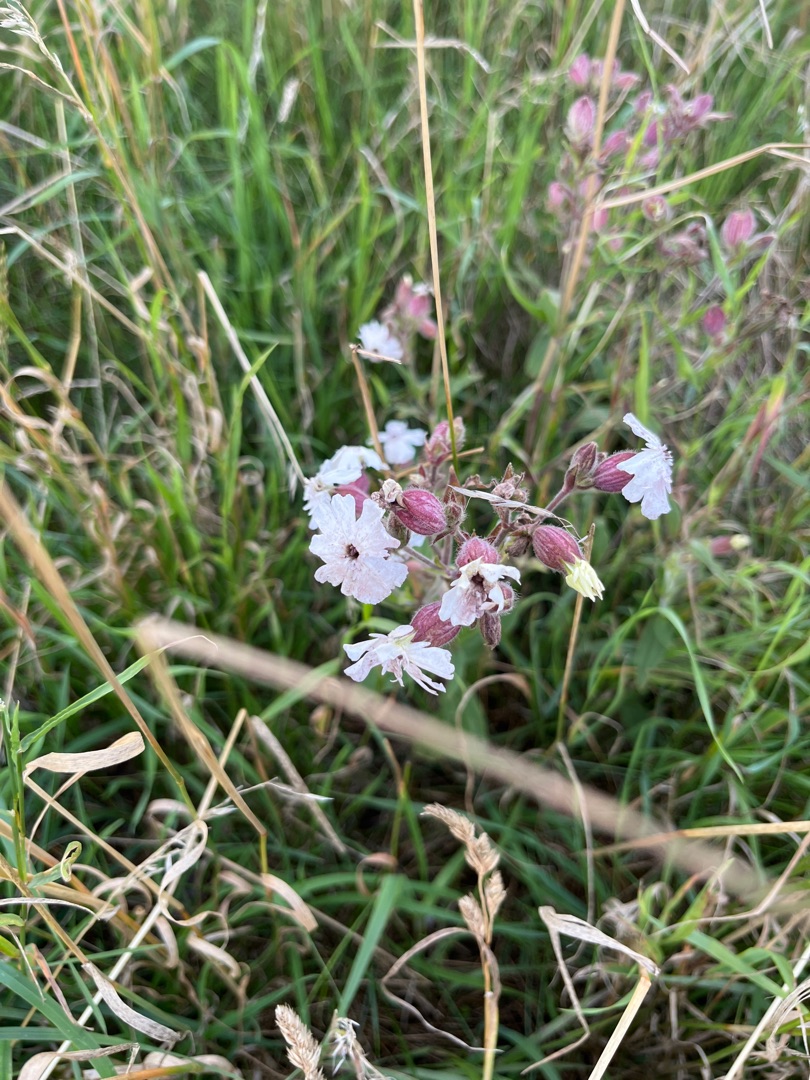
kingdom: Plantae
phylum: Tracheophyta
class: Magnoliopsida
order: Caryophyllales
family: Caryophyllaceae
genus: Silene
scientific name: Silene latifolia
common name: Aftenpragtstjerne
